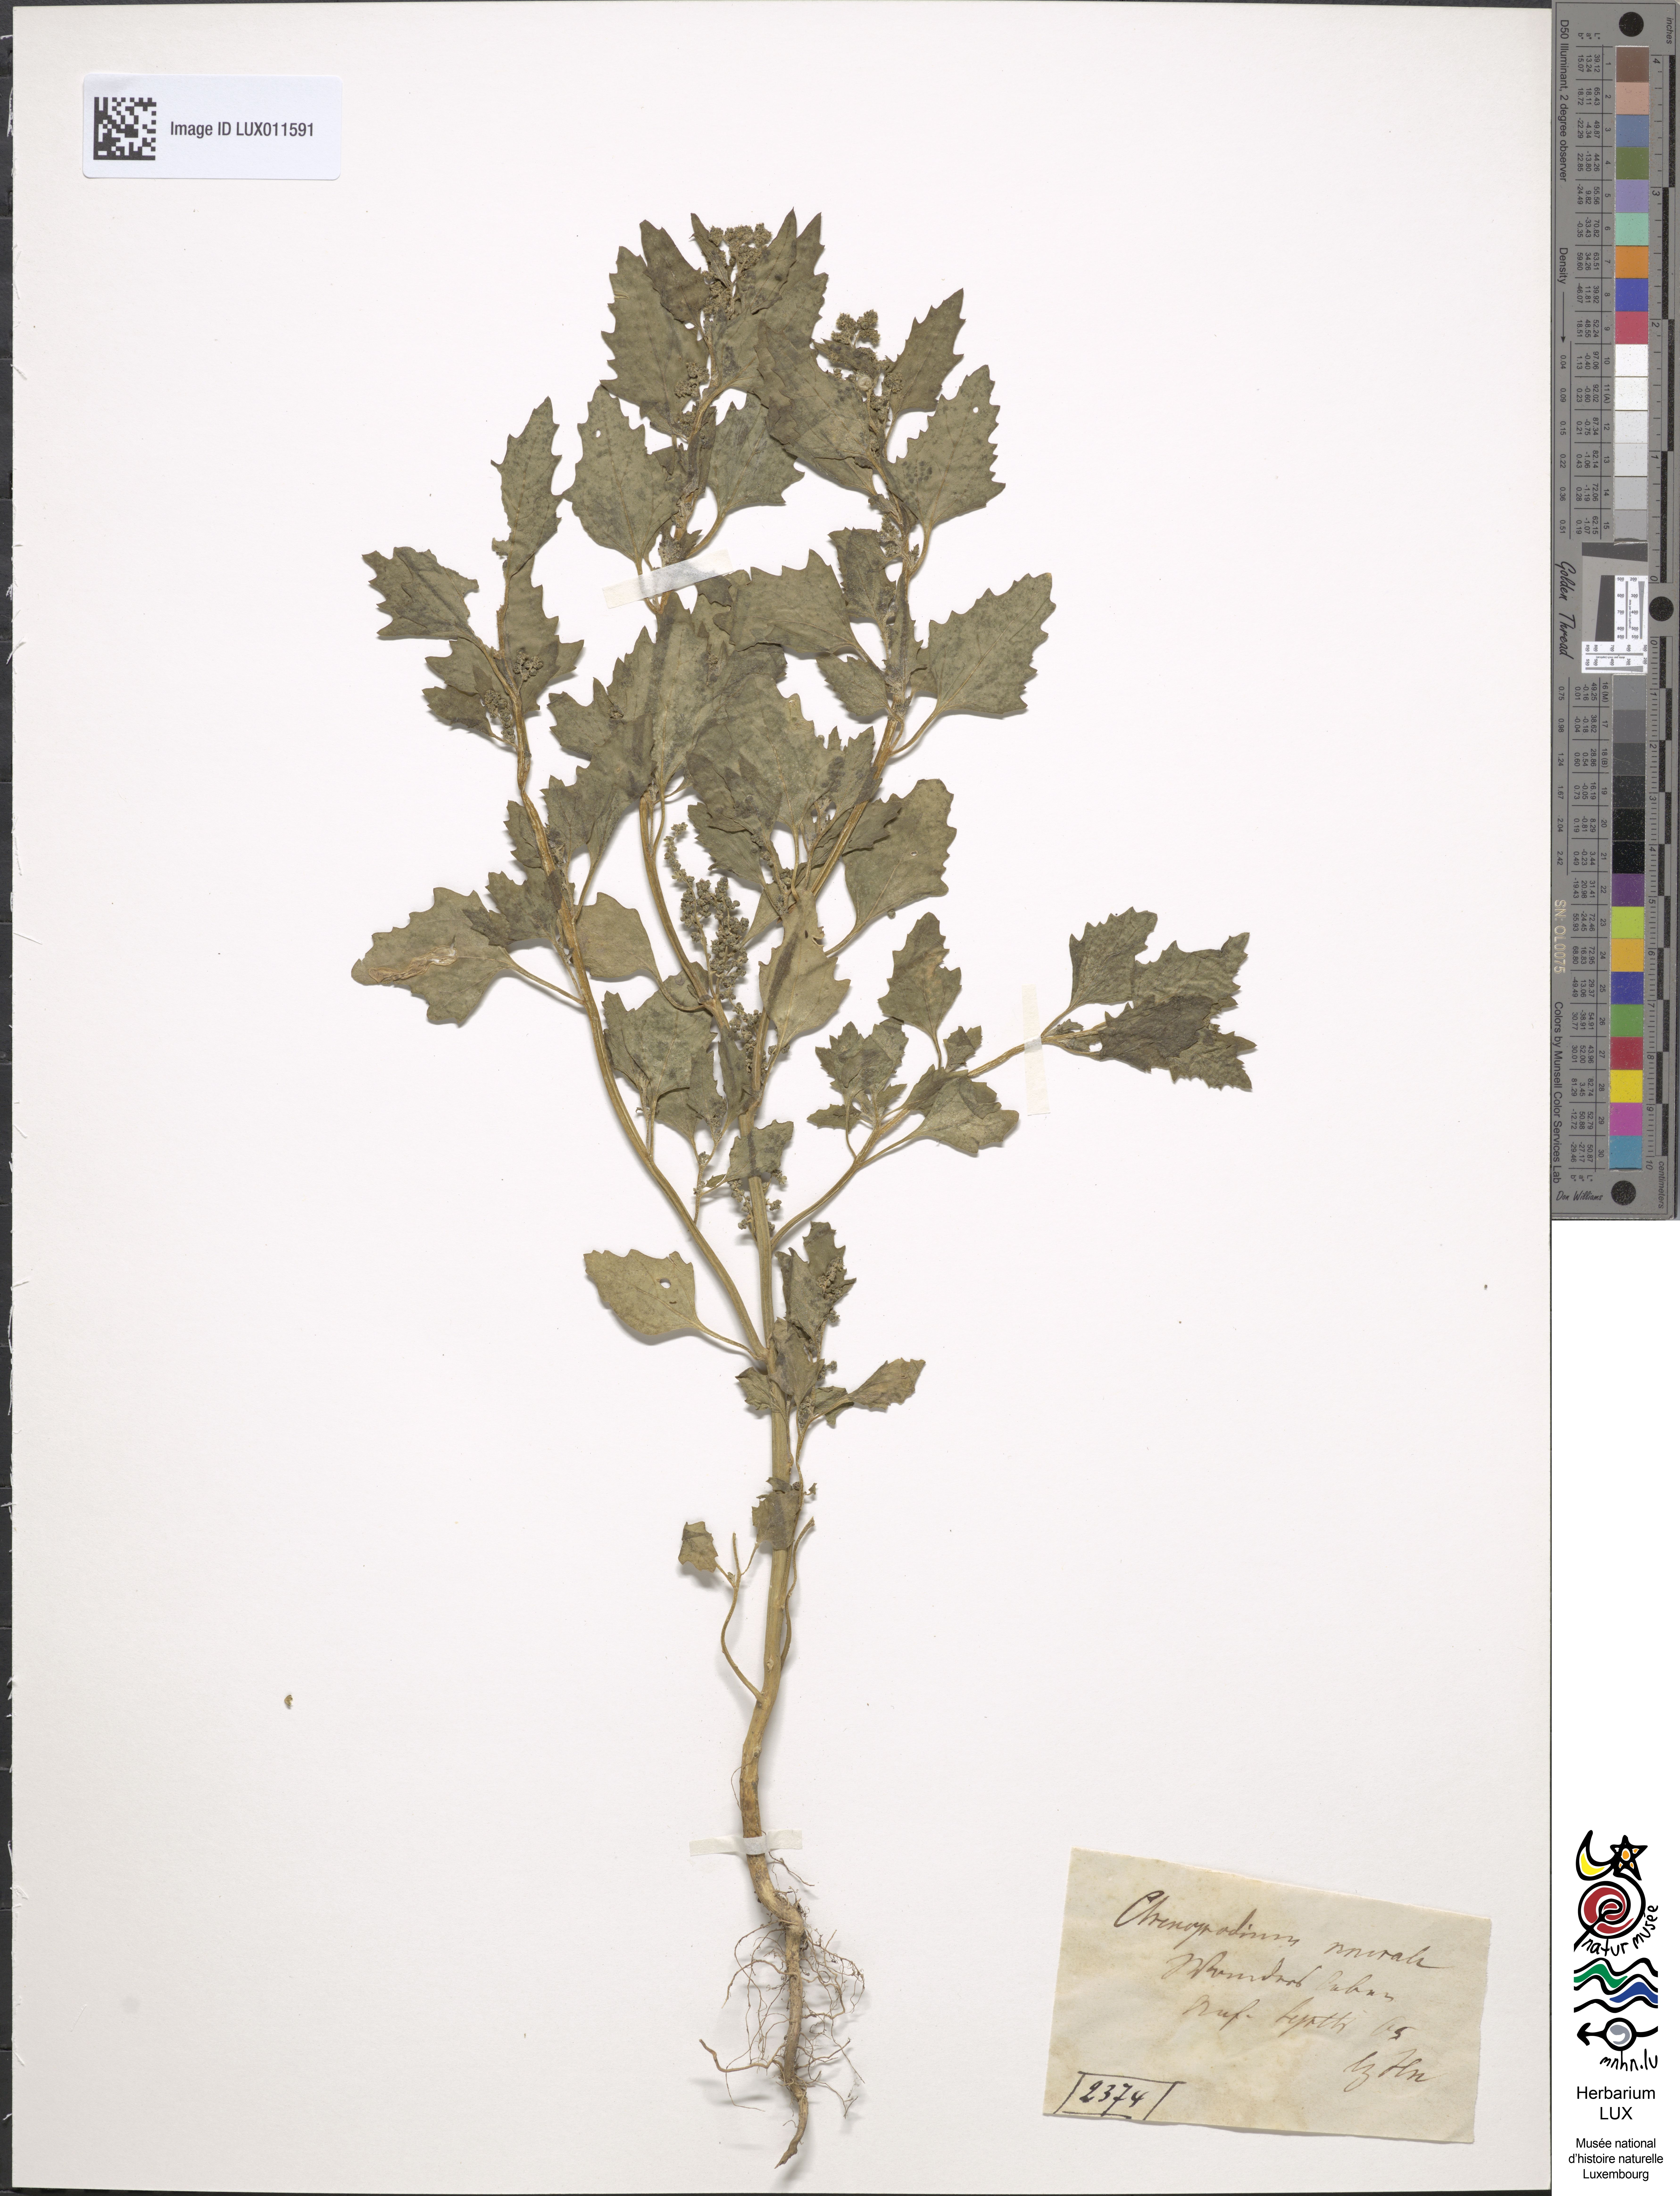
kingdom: Plantae
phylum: Tracheophyta
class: Magnoliopsida
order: Caryophyllales
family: Amaranthaceae
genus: Chenopodiastrum
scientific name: Chenopodiastrum murale
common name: Sowbane
